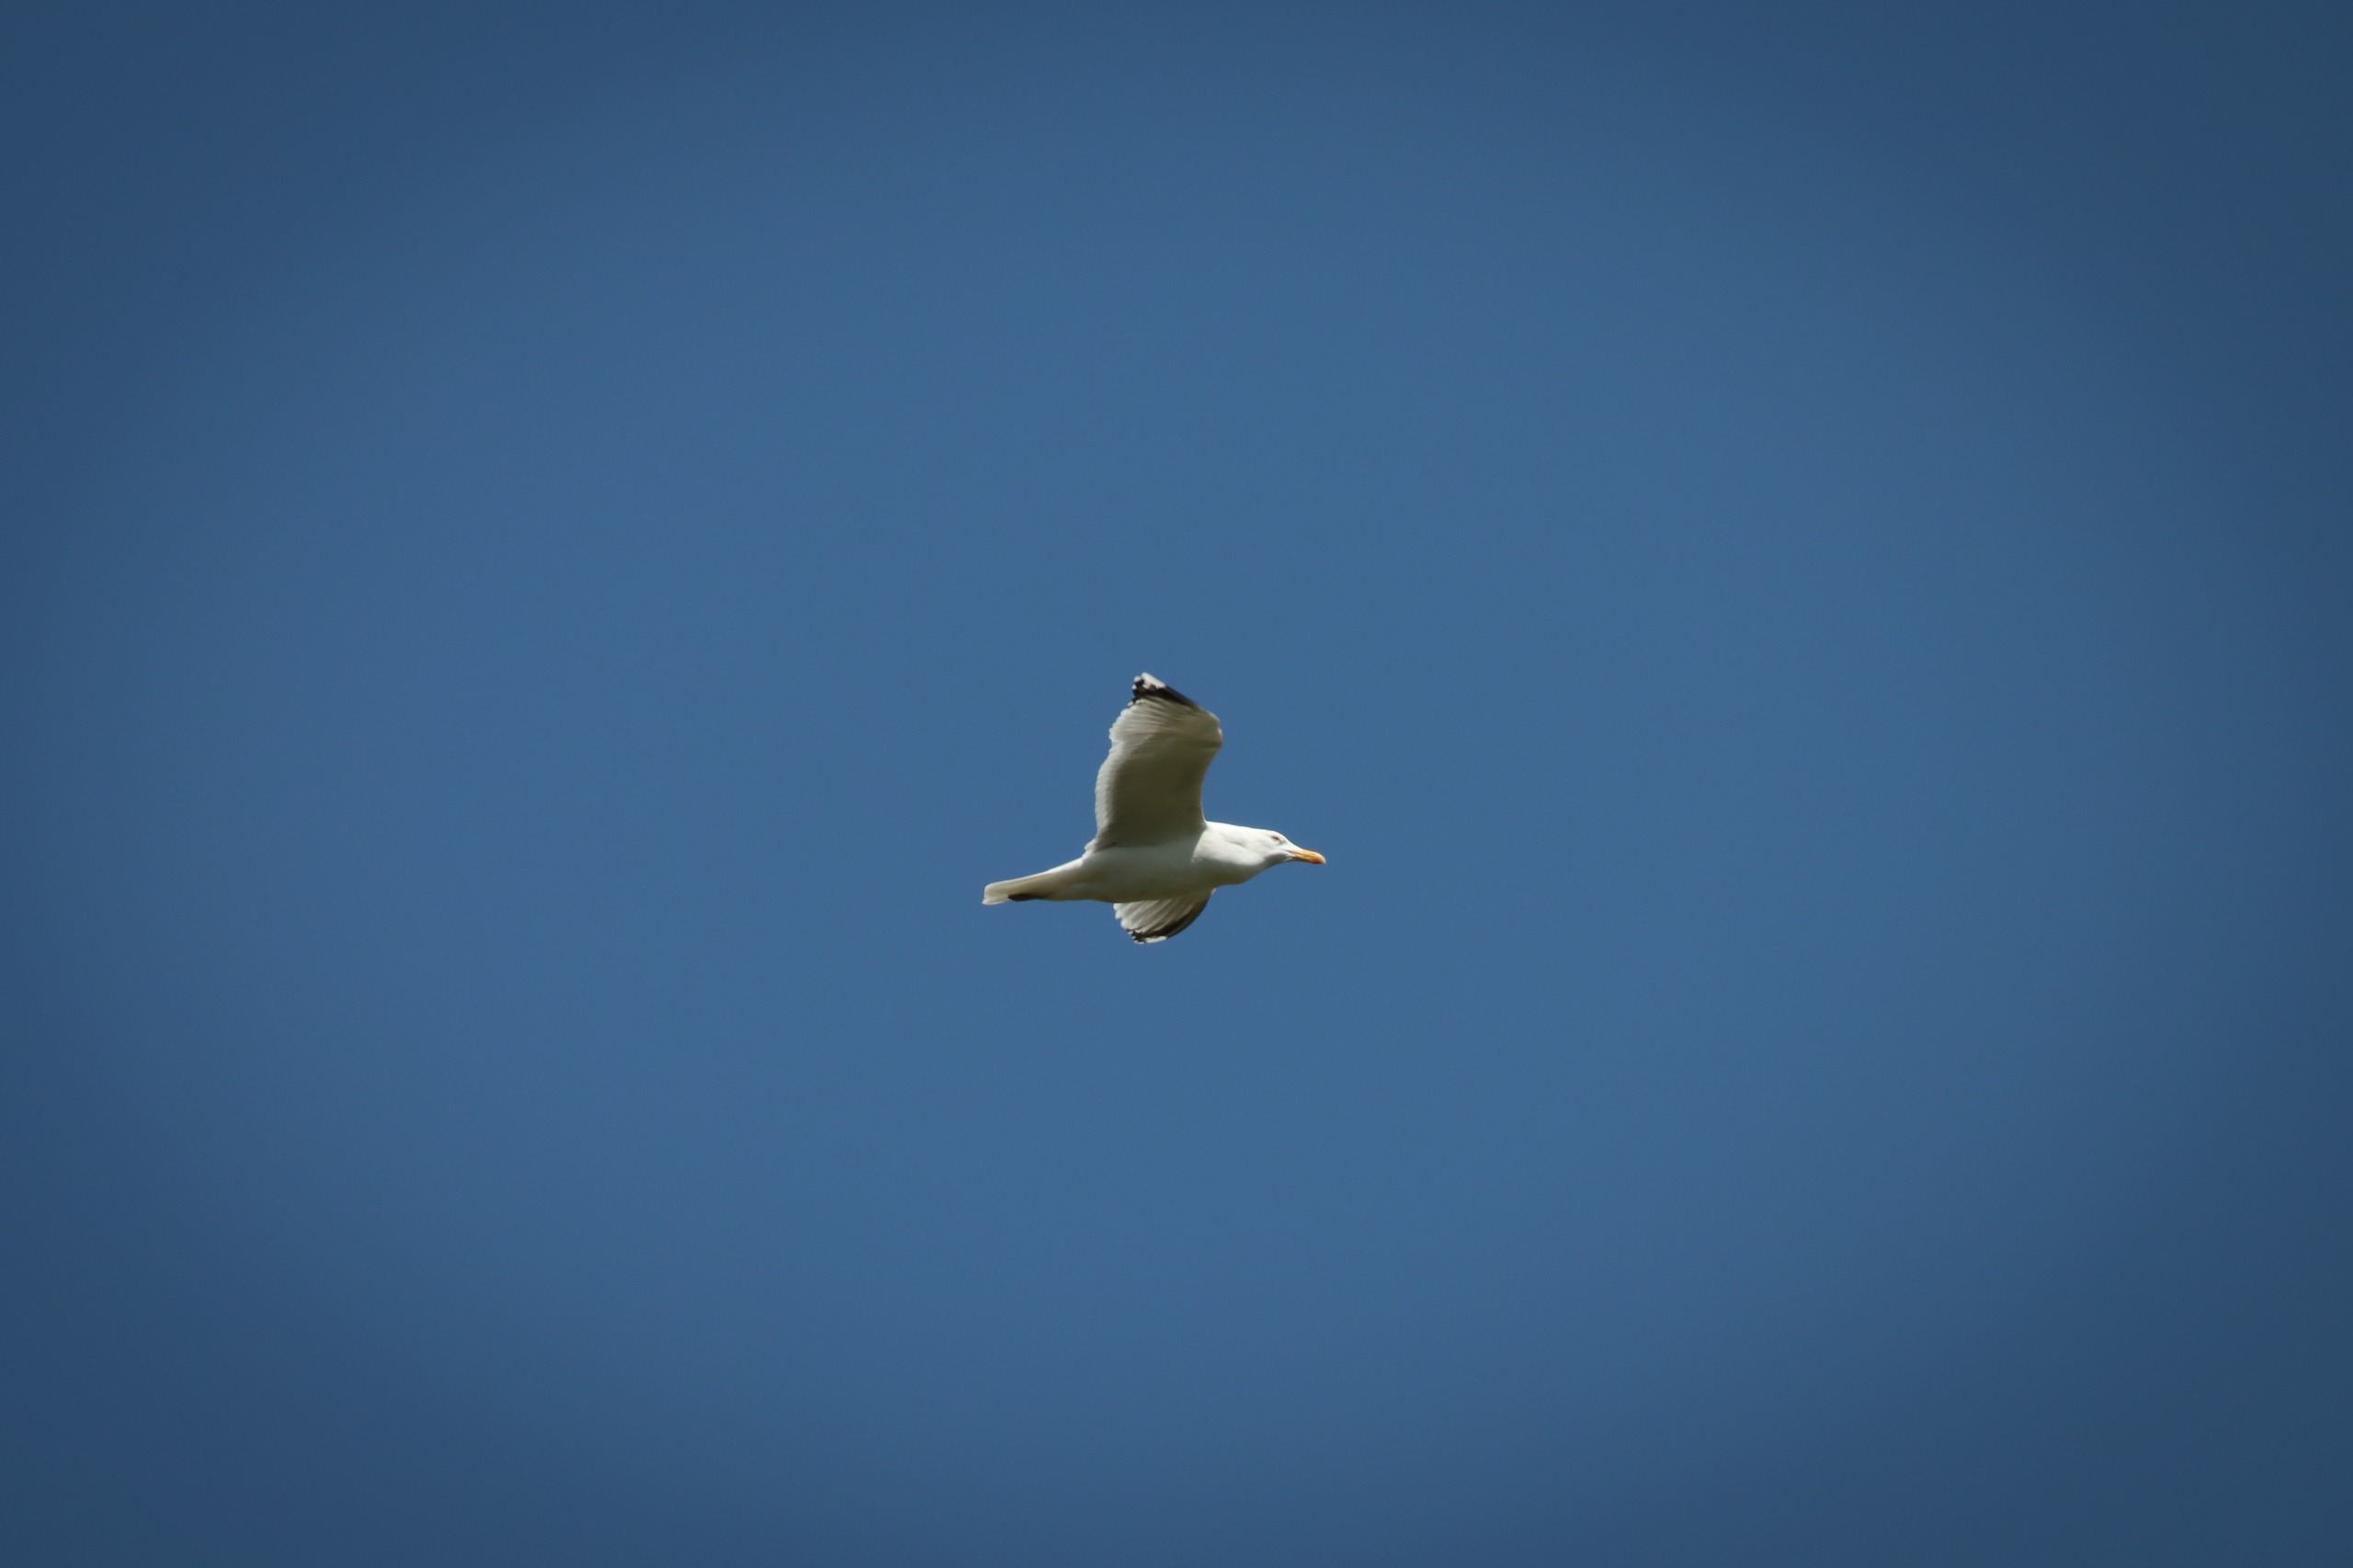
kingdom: Animalia
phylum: Chordata
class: Aves
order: Charadriiformes
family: Laridae
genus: Larus
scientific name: Larus argentatus
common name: Sølvmåge
